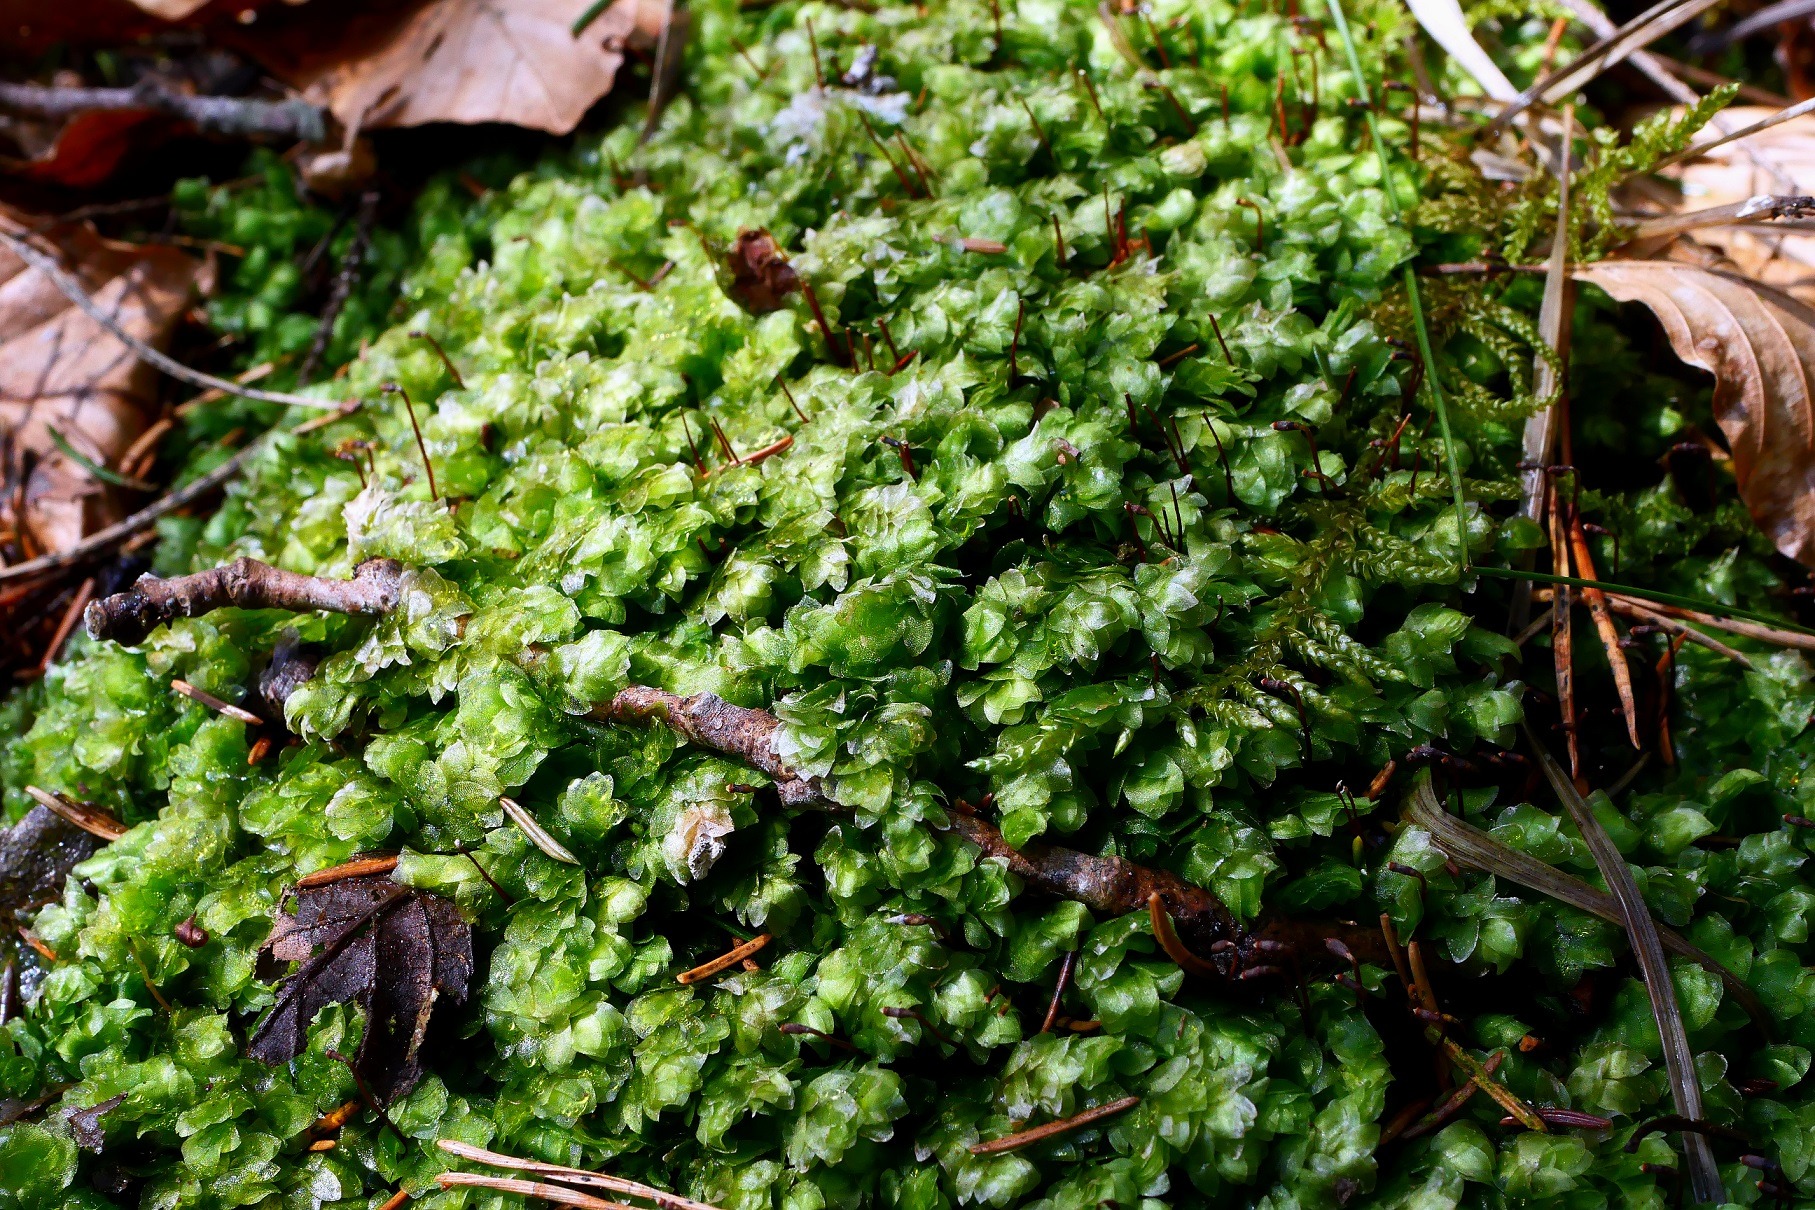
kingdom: Plantae
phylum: Bryophyta
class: Bryopsida
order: Hookeriales
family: Hookeriaceae
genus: Hookeria
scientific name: Hookeria lucens
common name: Skinnende dronningemos
